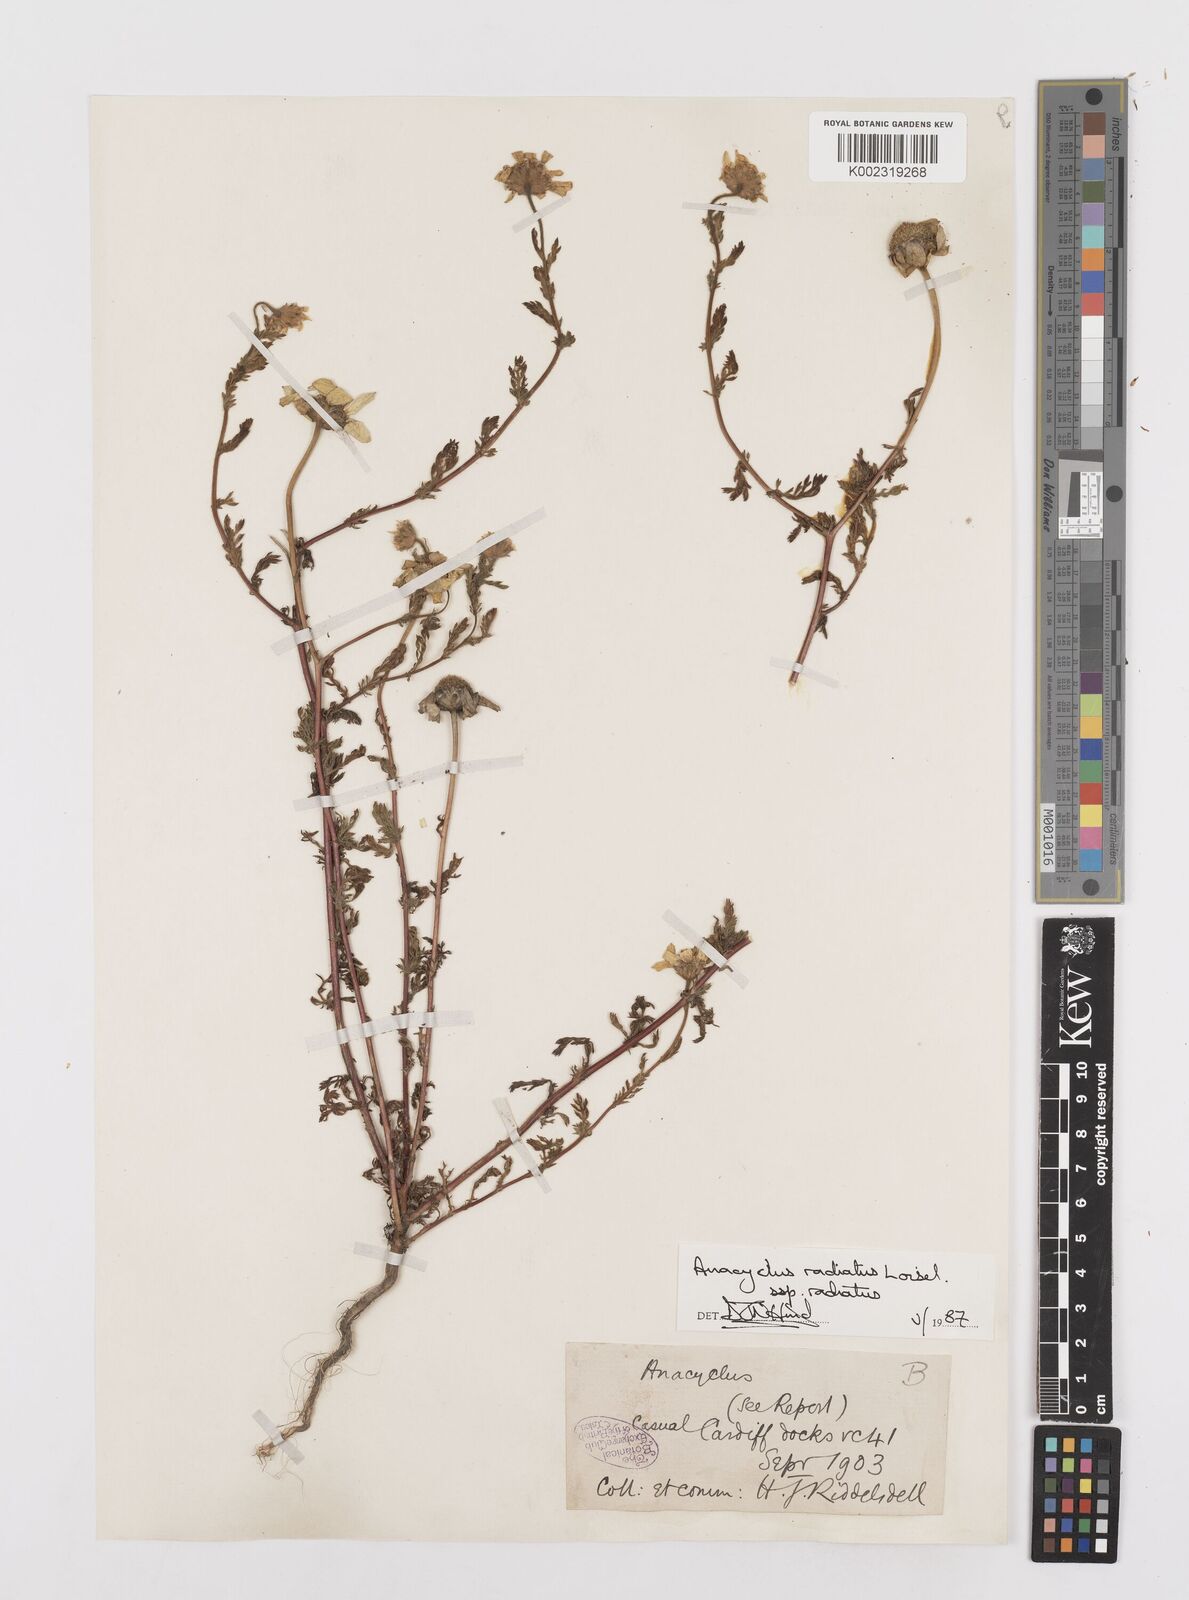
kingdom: Plantae
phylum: Tracheophyta
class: Magnoliopsida
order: Asterales
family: Asteraceae
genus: Anacyclus
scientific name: Anacyclus radiatus
